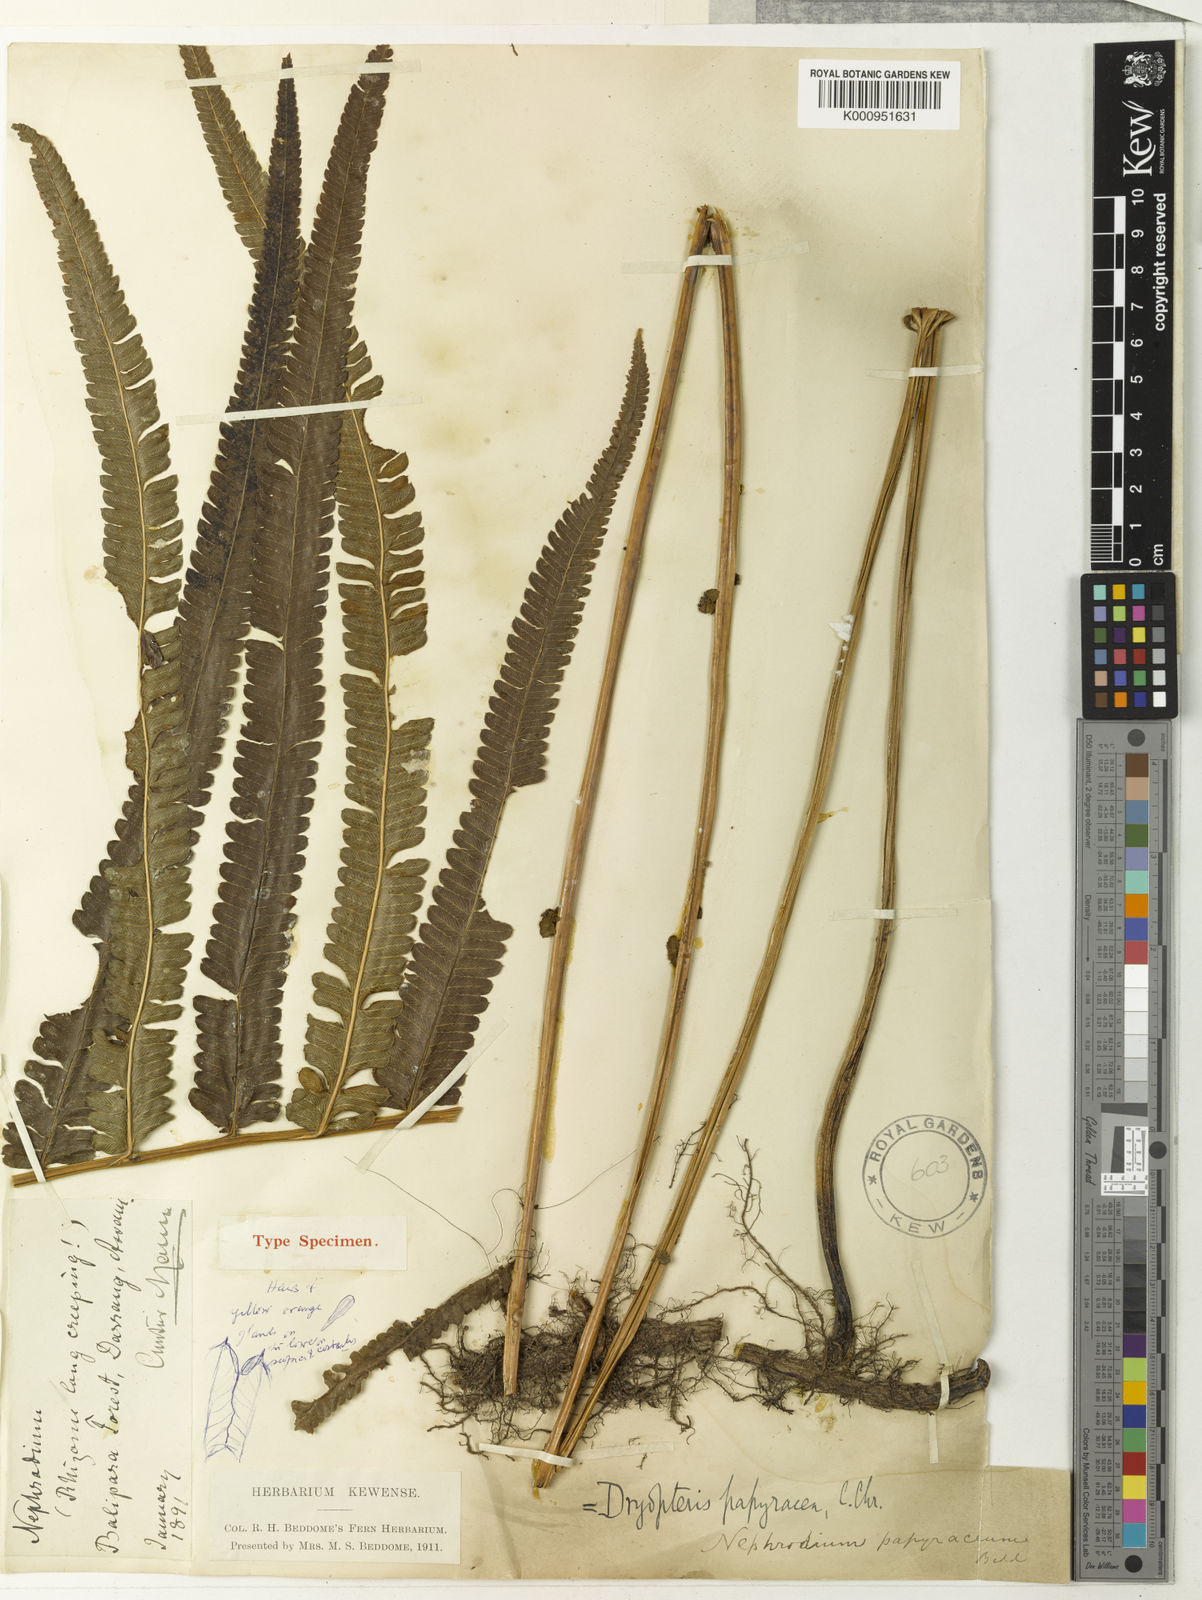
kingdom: Plantae
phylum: Tracheophyta
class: Polypodiopsida
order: Polypodiales
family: Thelypteridaceae
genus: Christella
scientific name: Christella arida
